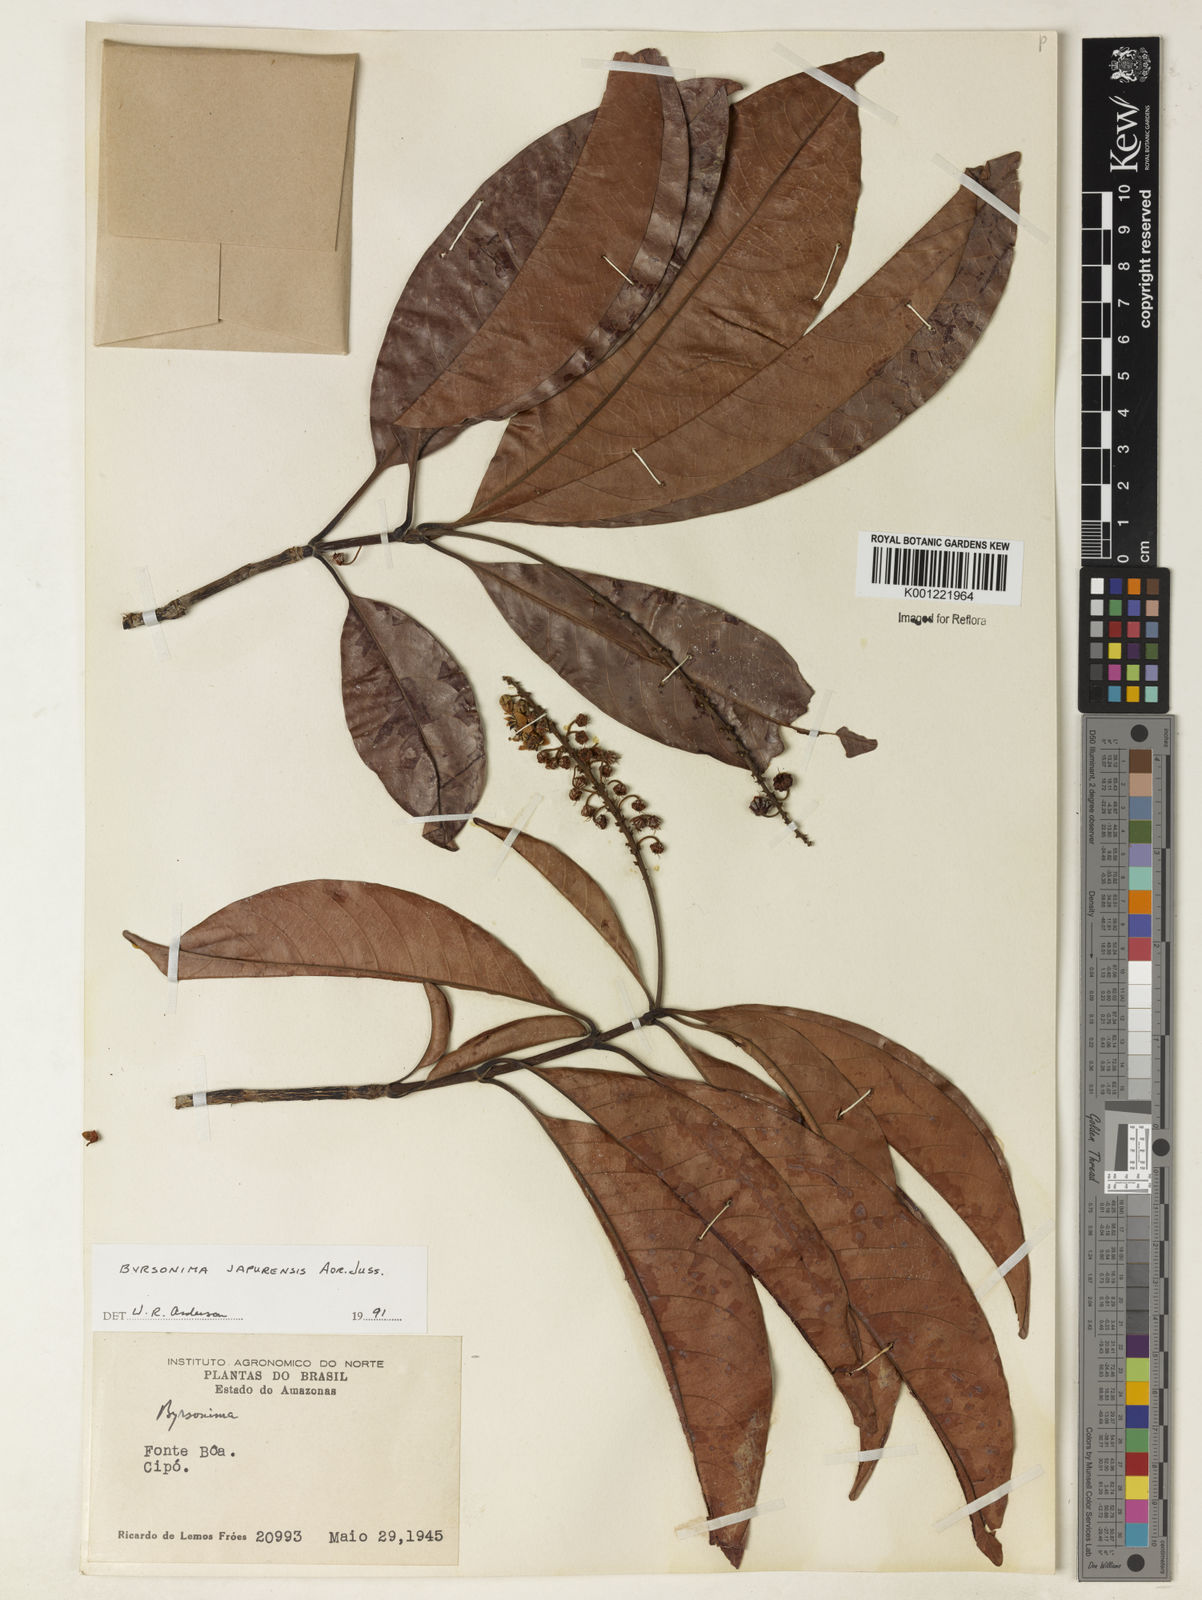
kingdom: Plantae
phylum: Tracheophyta
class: Magnoliopsida
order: Malpighiales
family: Malpighiaceae
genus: Byrsonima
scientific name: Byrsonima japurensis
